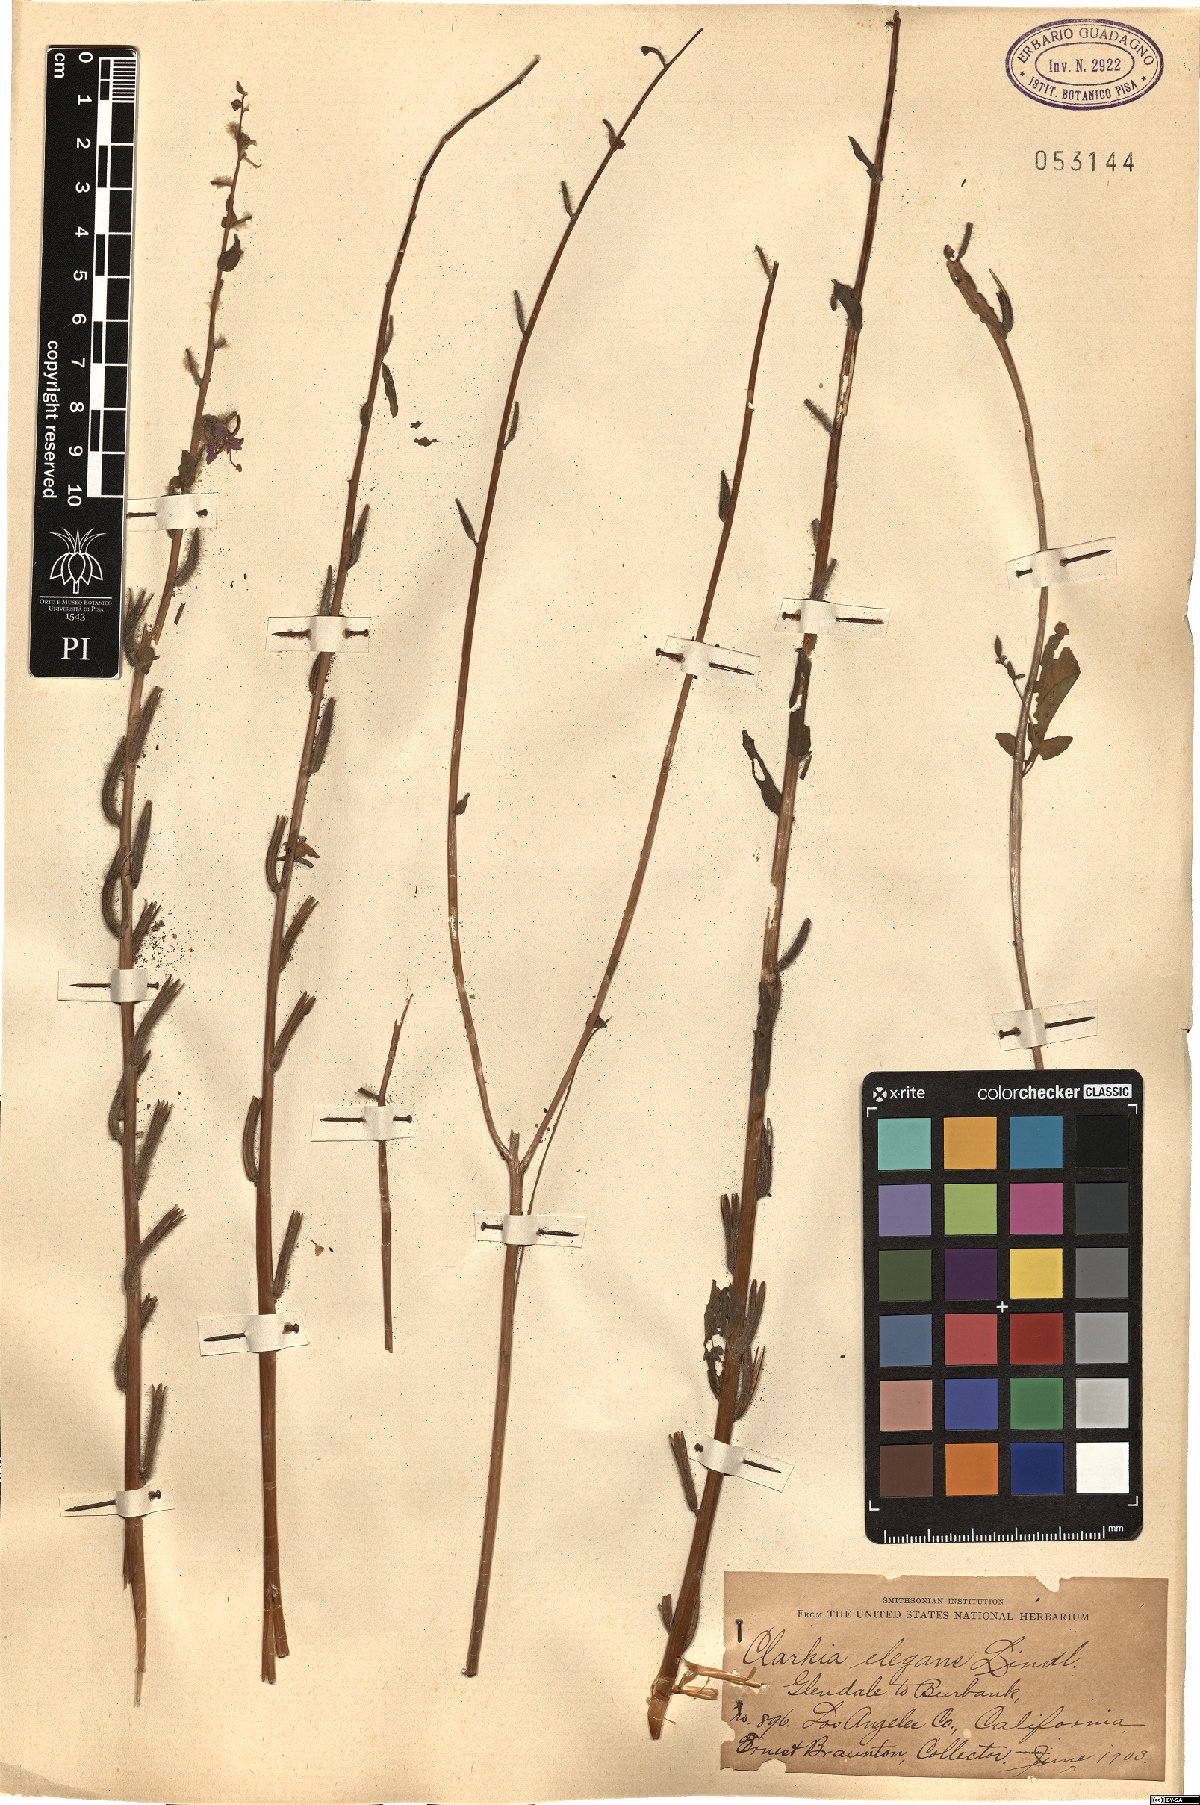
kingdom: Plantae
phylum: Tracheophyta
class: Magnoliopsida
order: Myrtales
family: Onagraceae
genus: Clarkia
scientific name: Clarkia unguiculata
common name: Clarkia
